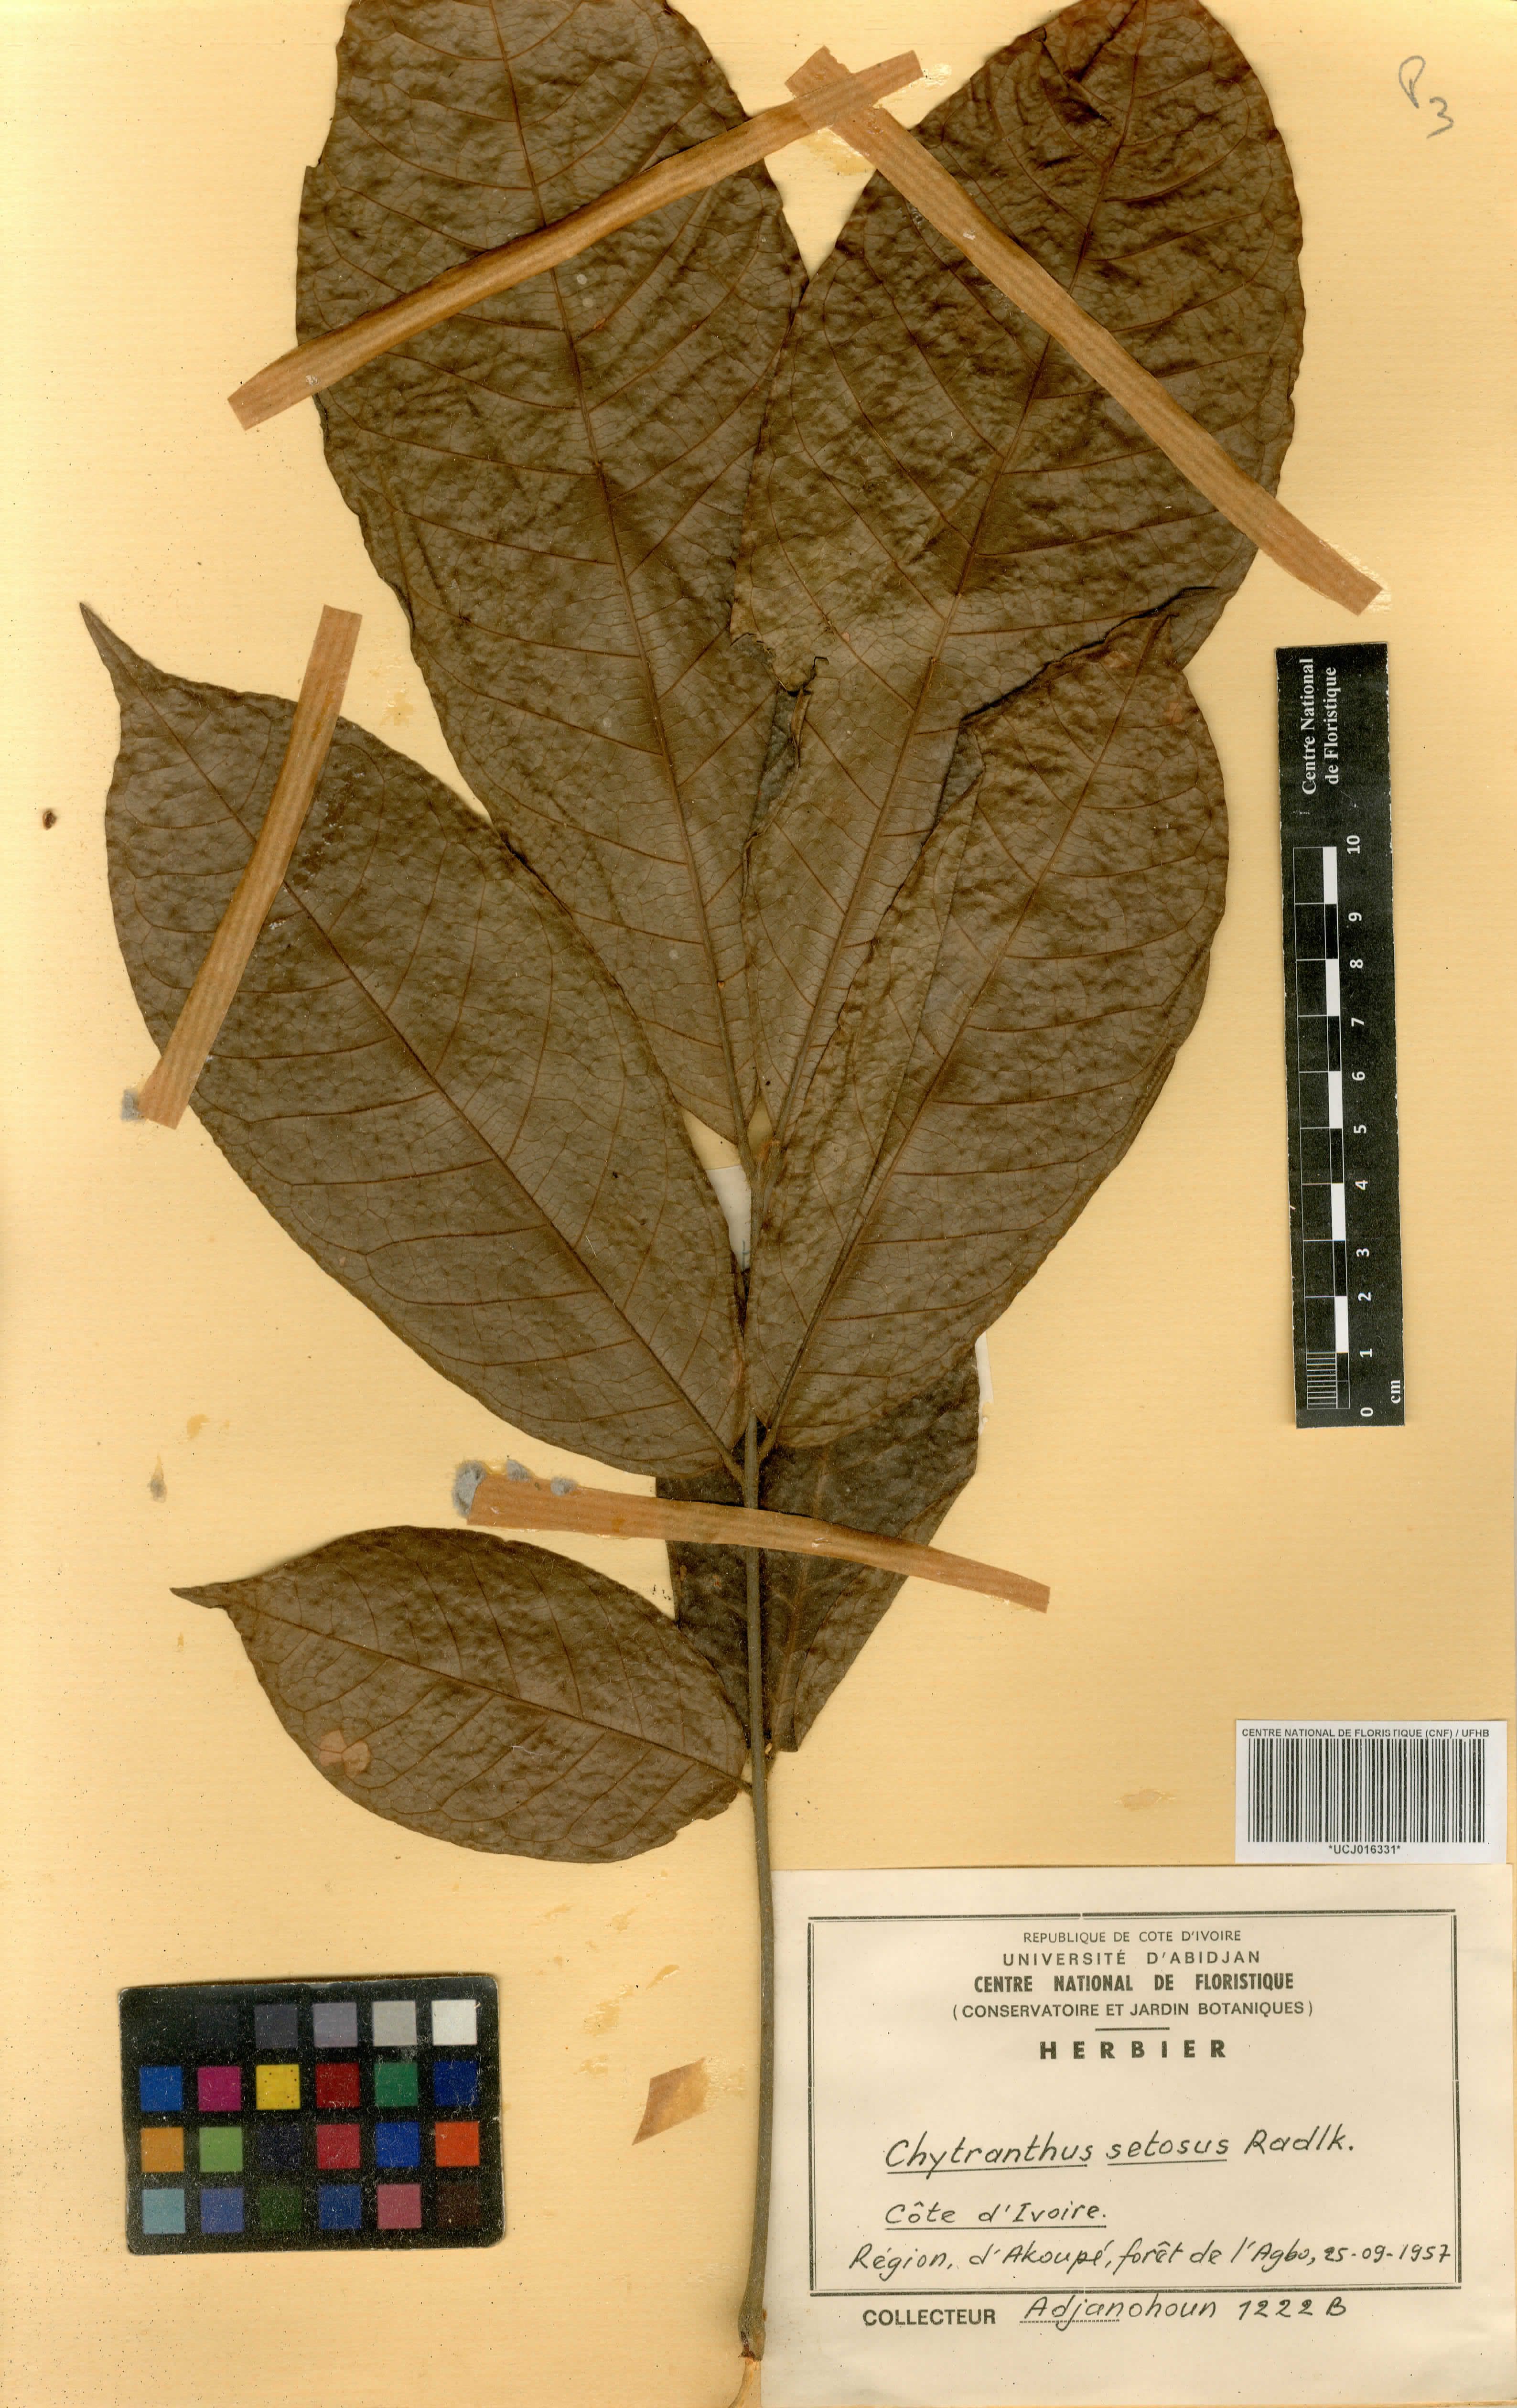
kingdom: Plantae
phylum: Tracheophyta
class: Magnoliopsida
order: Sapindales
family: Sapindaceae
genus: Chytranthus
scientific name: Chytranthus setosus
